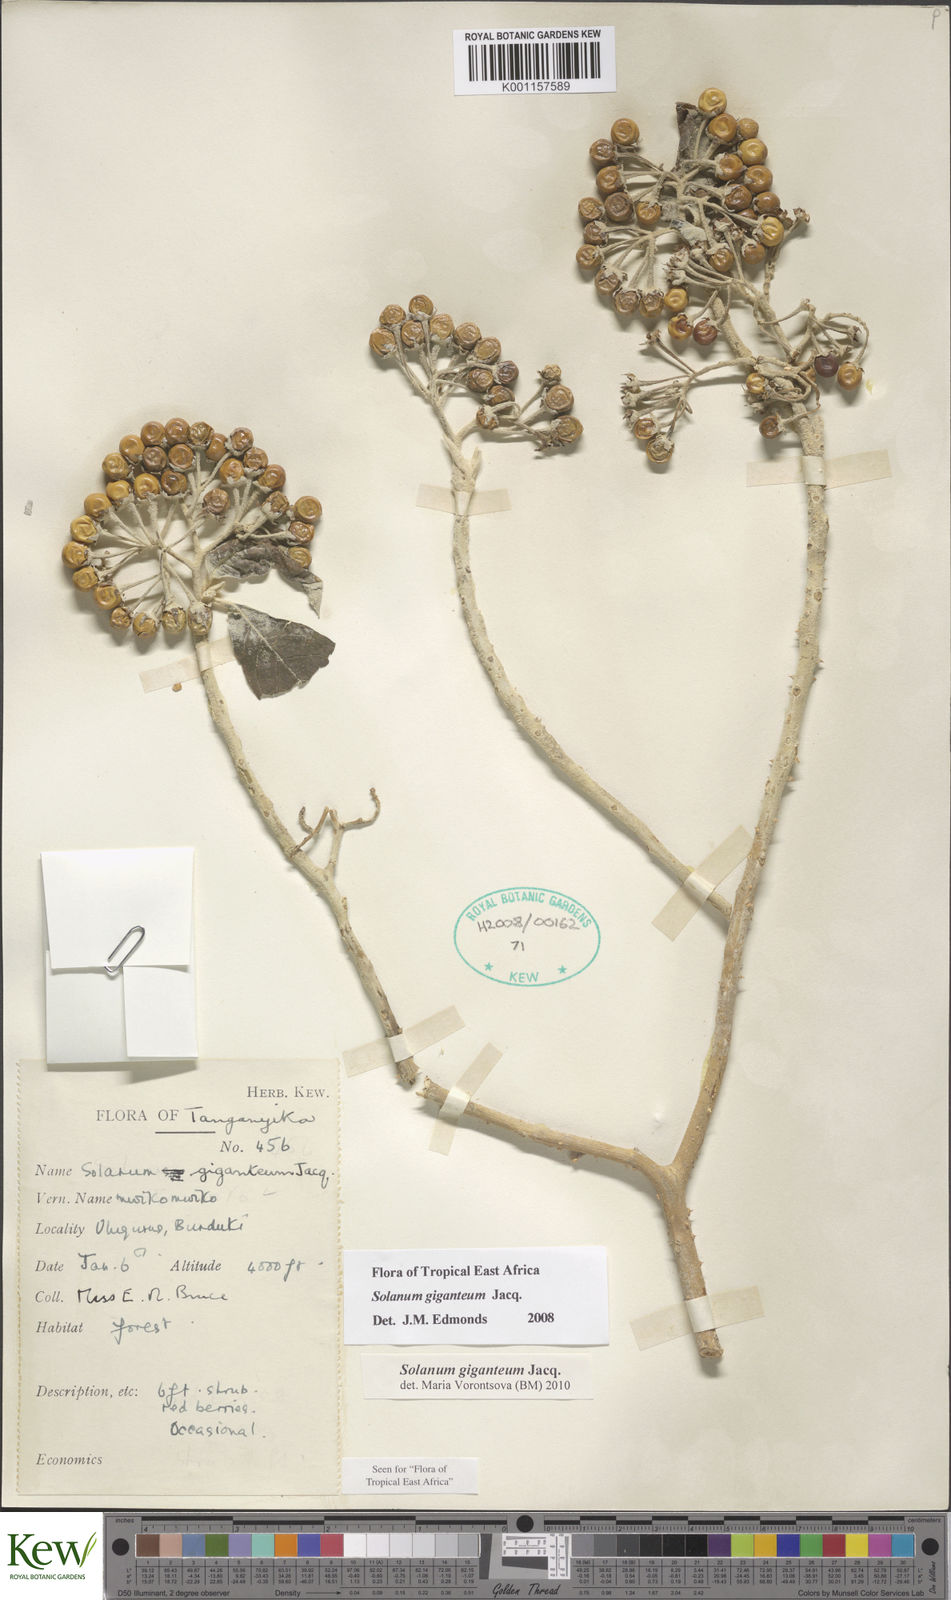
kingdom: Plantae
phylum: Tracheophyta
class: Magnoliopsida
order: Solanales
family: Solanaceae
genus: Solanum
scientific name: Solanum giganteum
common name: Healing-leaf-tree
